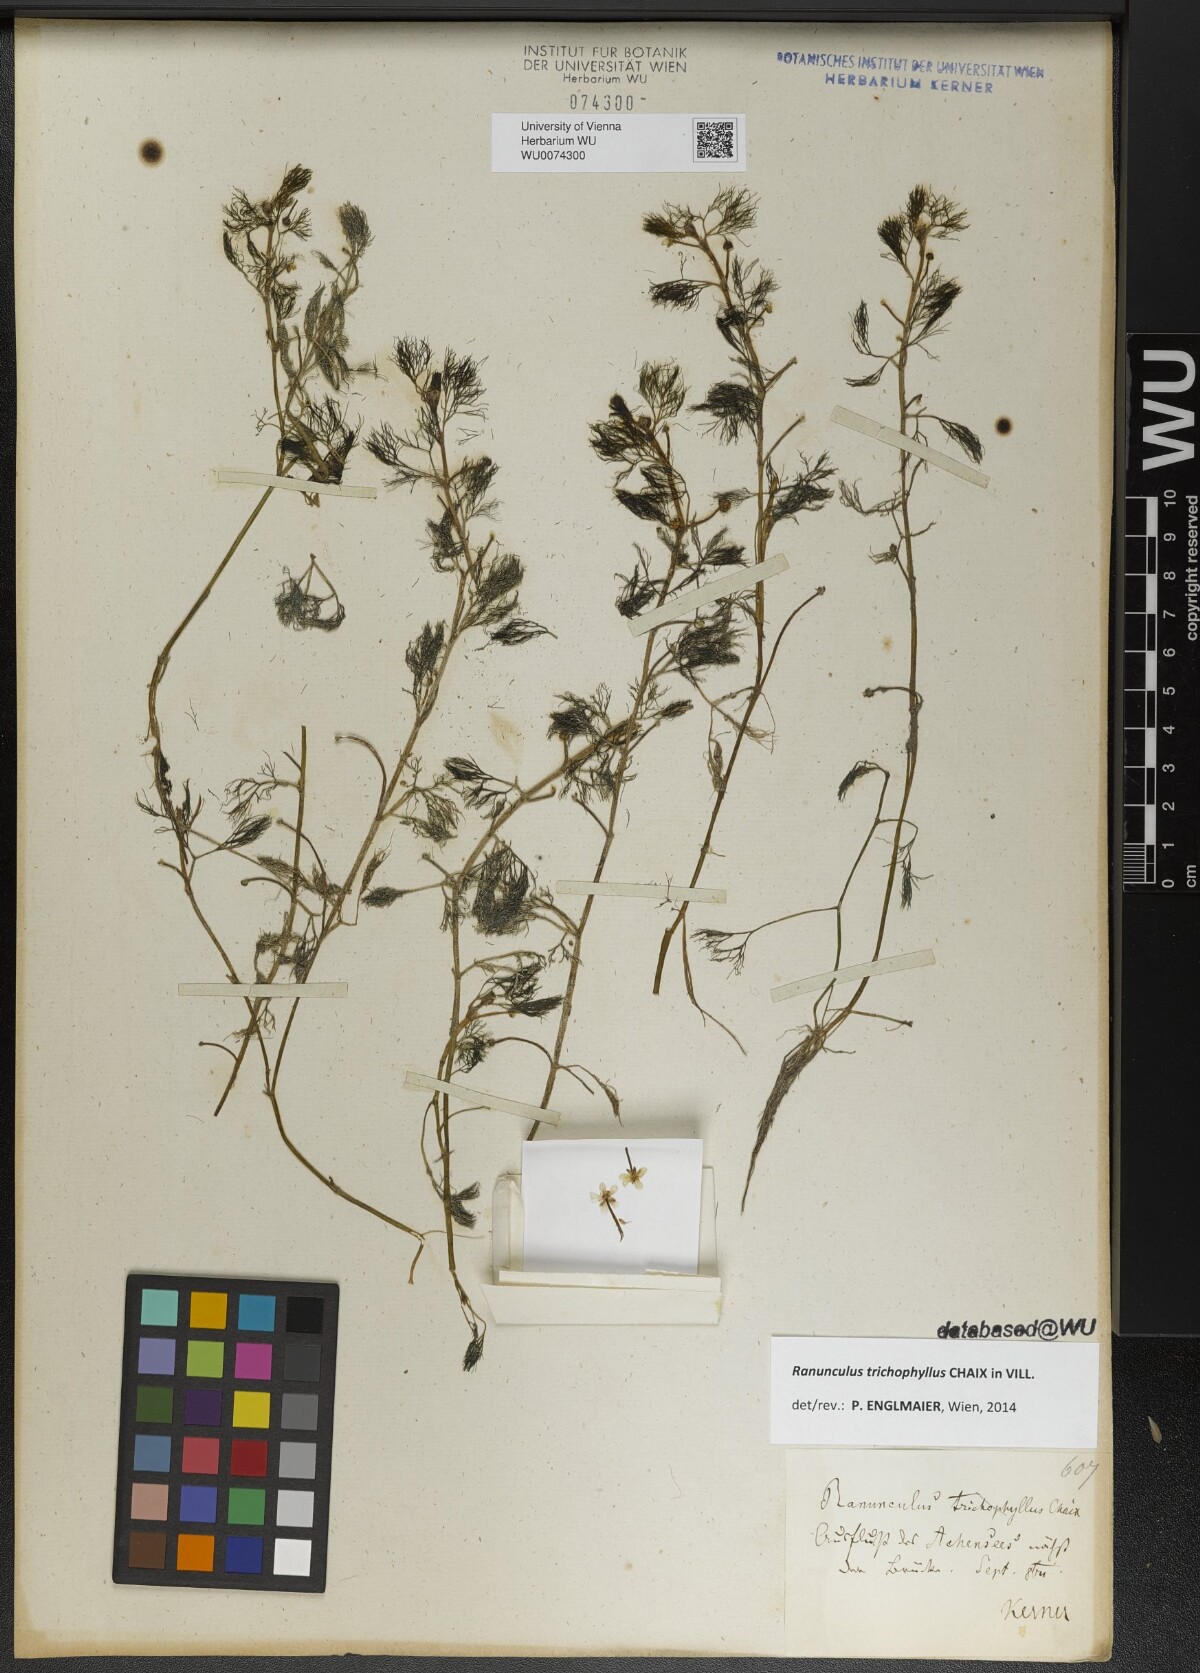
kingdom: Plantae
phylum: Tracheophyta
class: Magnoliopsida
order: Ranunculales
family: Ranunculaceae
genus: Ranunculus
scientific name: Ranunculus trichophyllus
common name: Thread-leaved water-crowfoot
